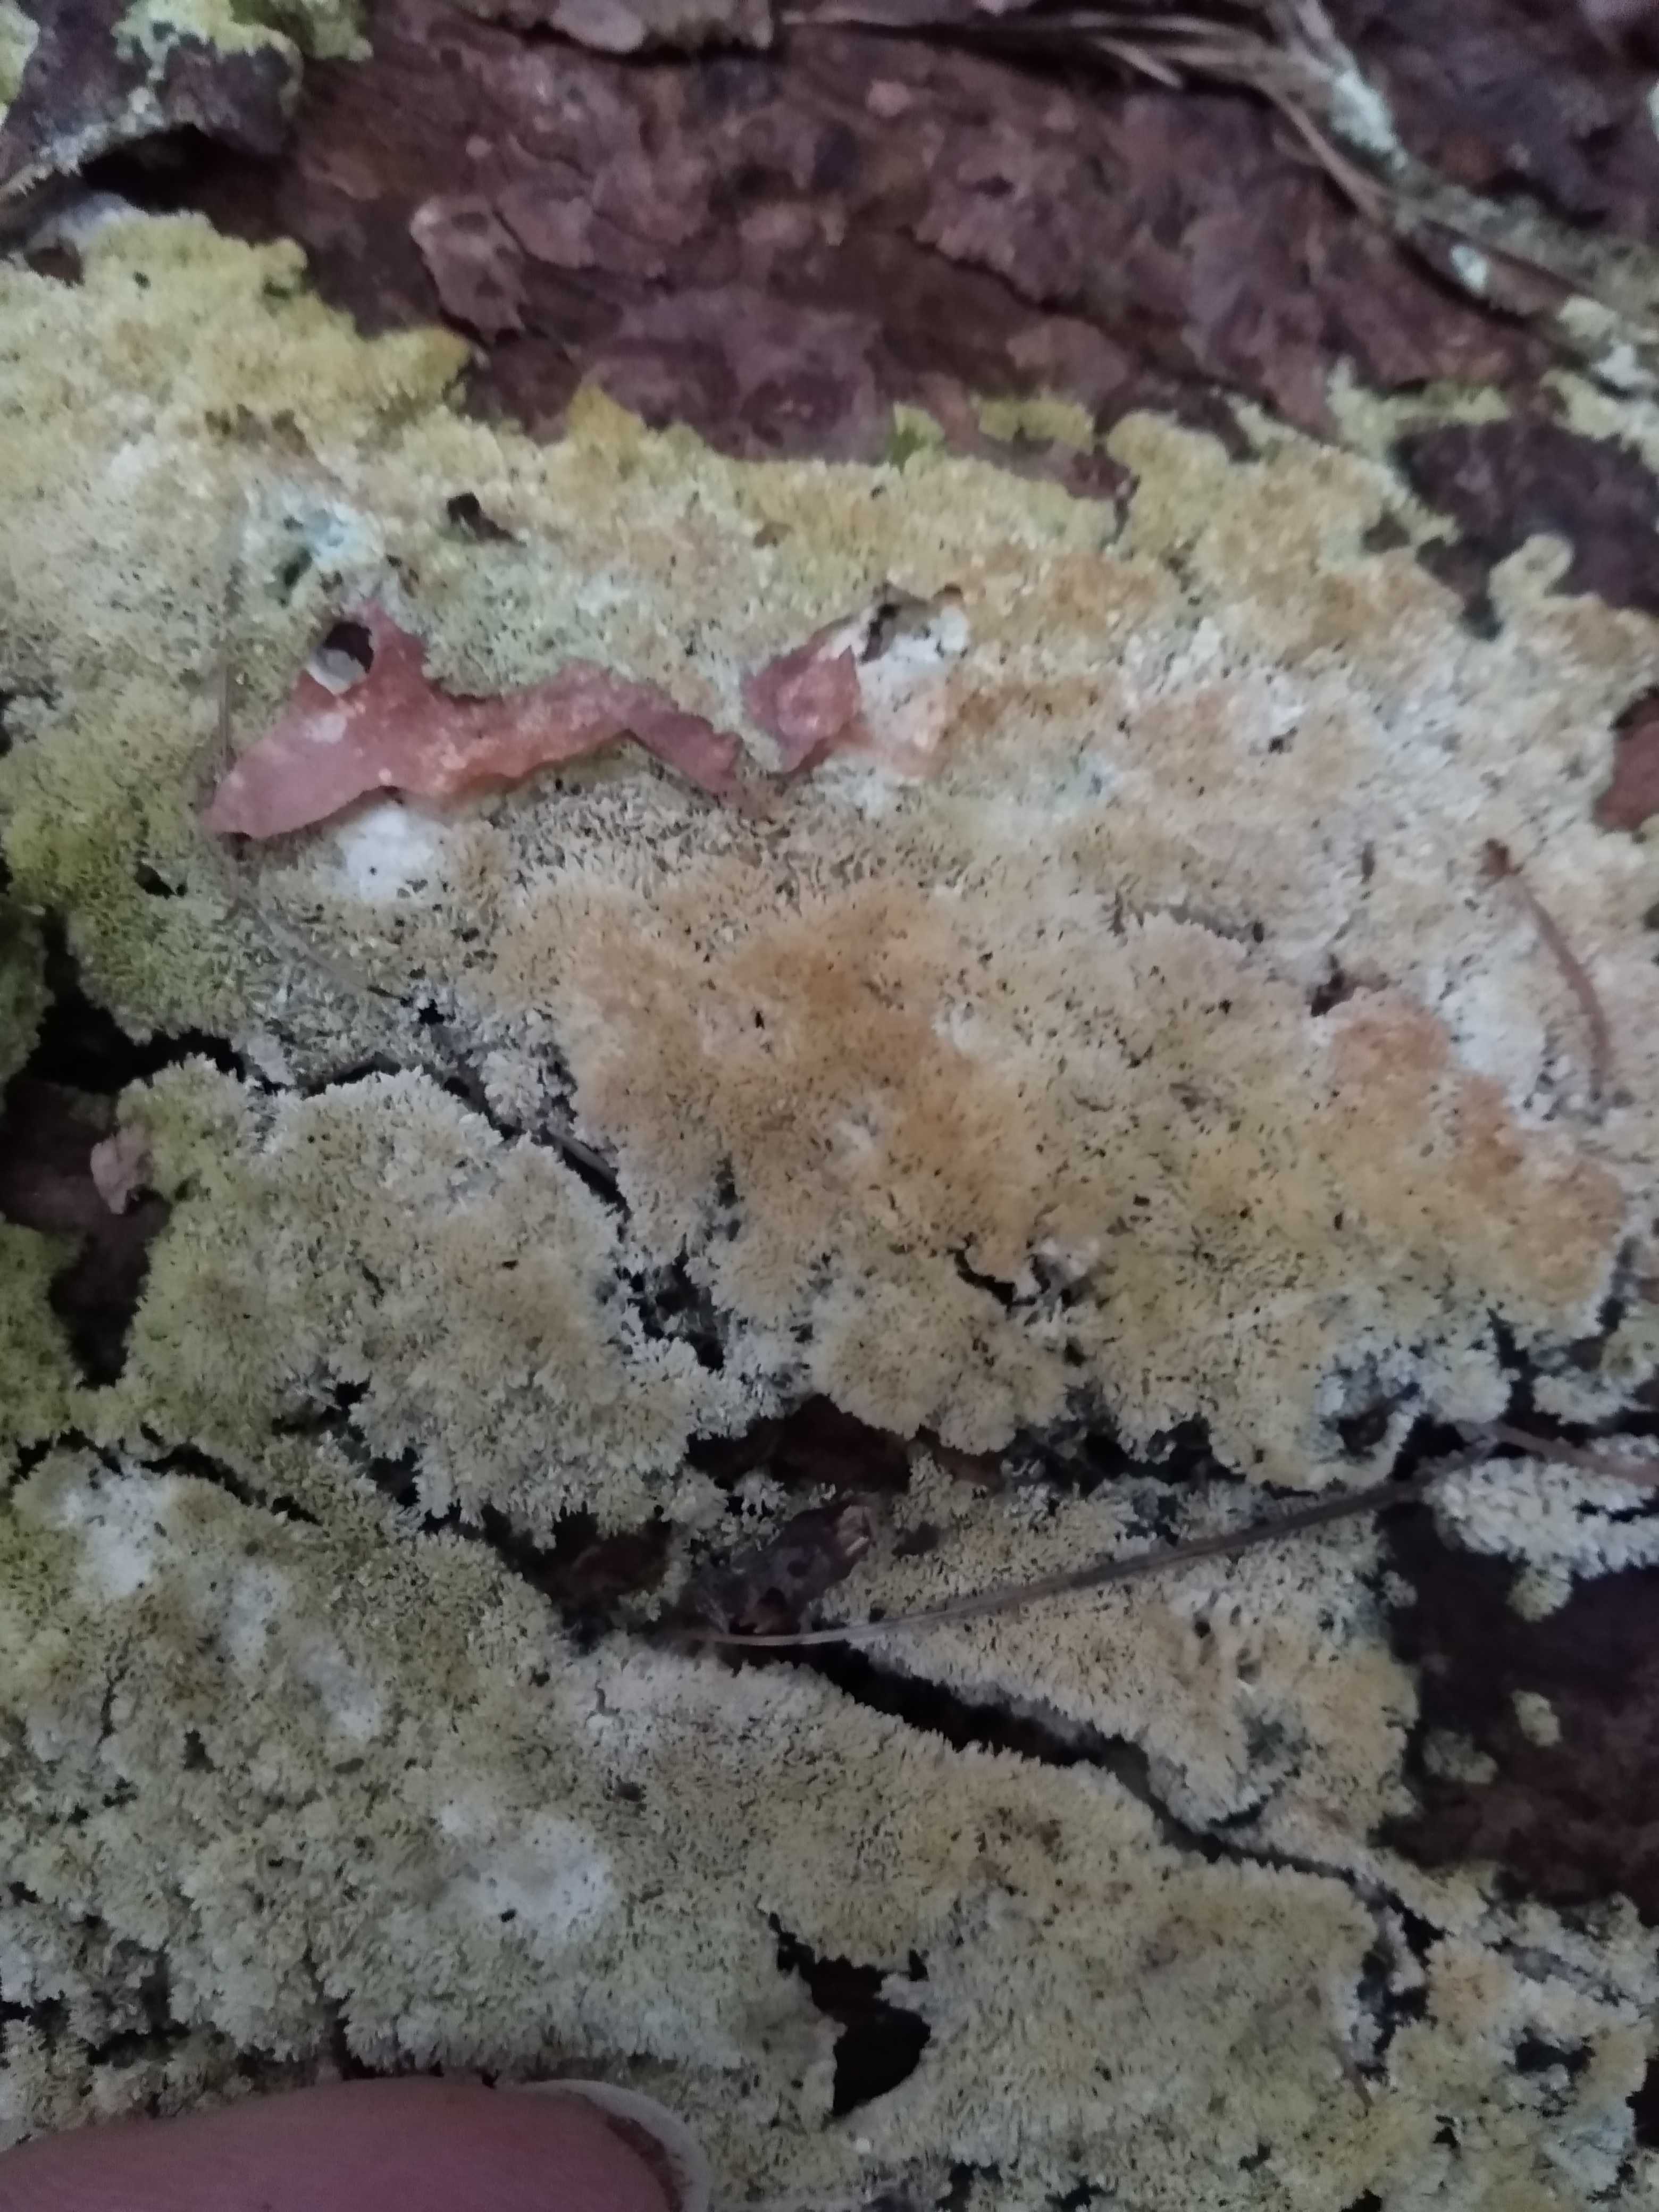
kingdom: Fungi
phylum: Basidiomycota
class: Agaricomycetes
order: Hymenochaetales
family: Schizoporaceae
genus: Xylodon
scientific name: Xylodon
